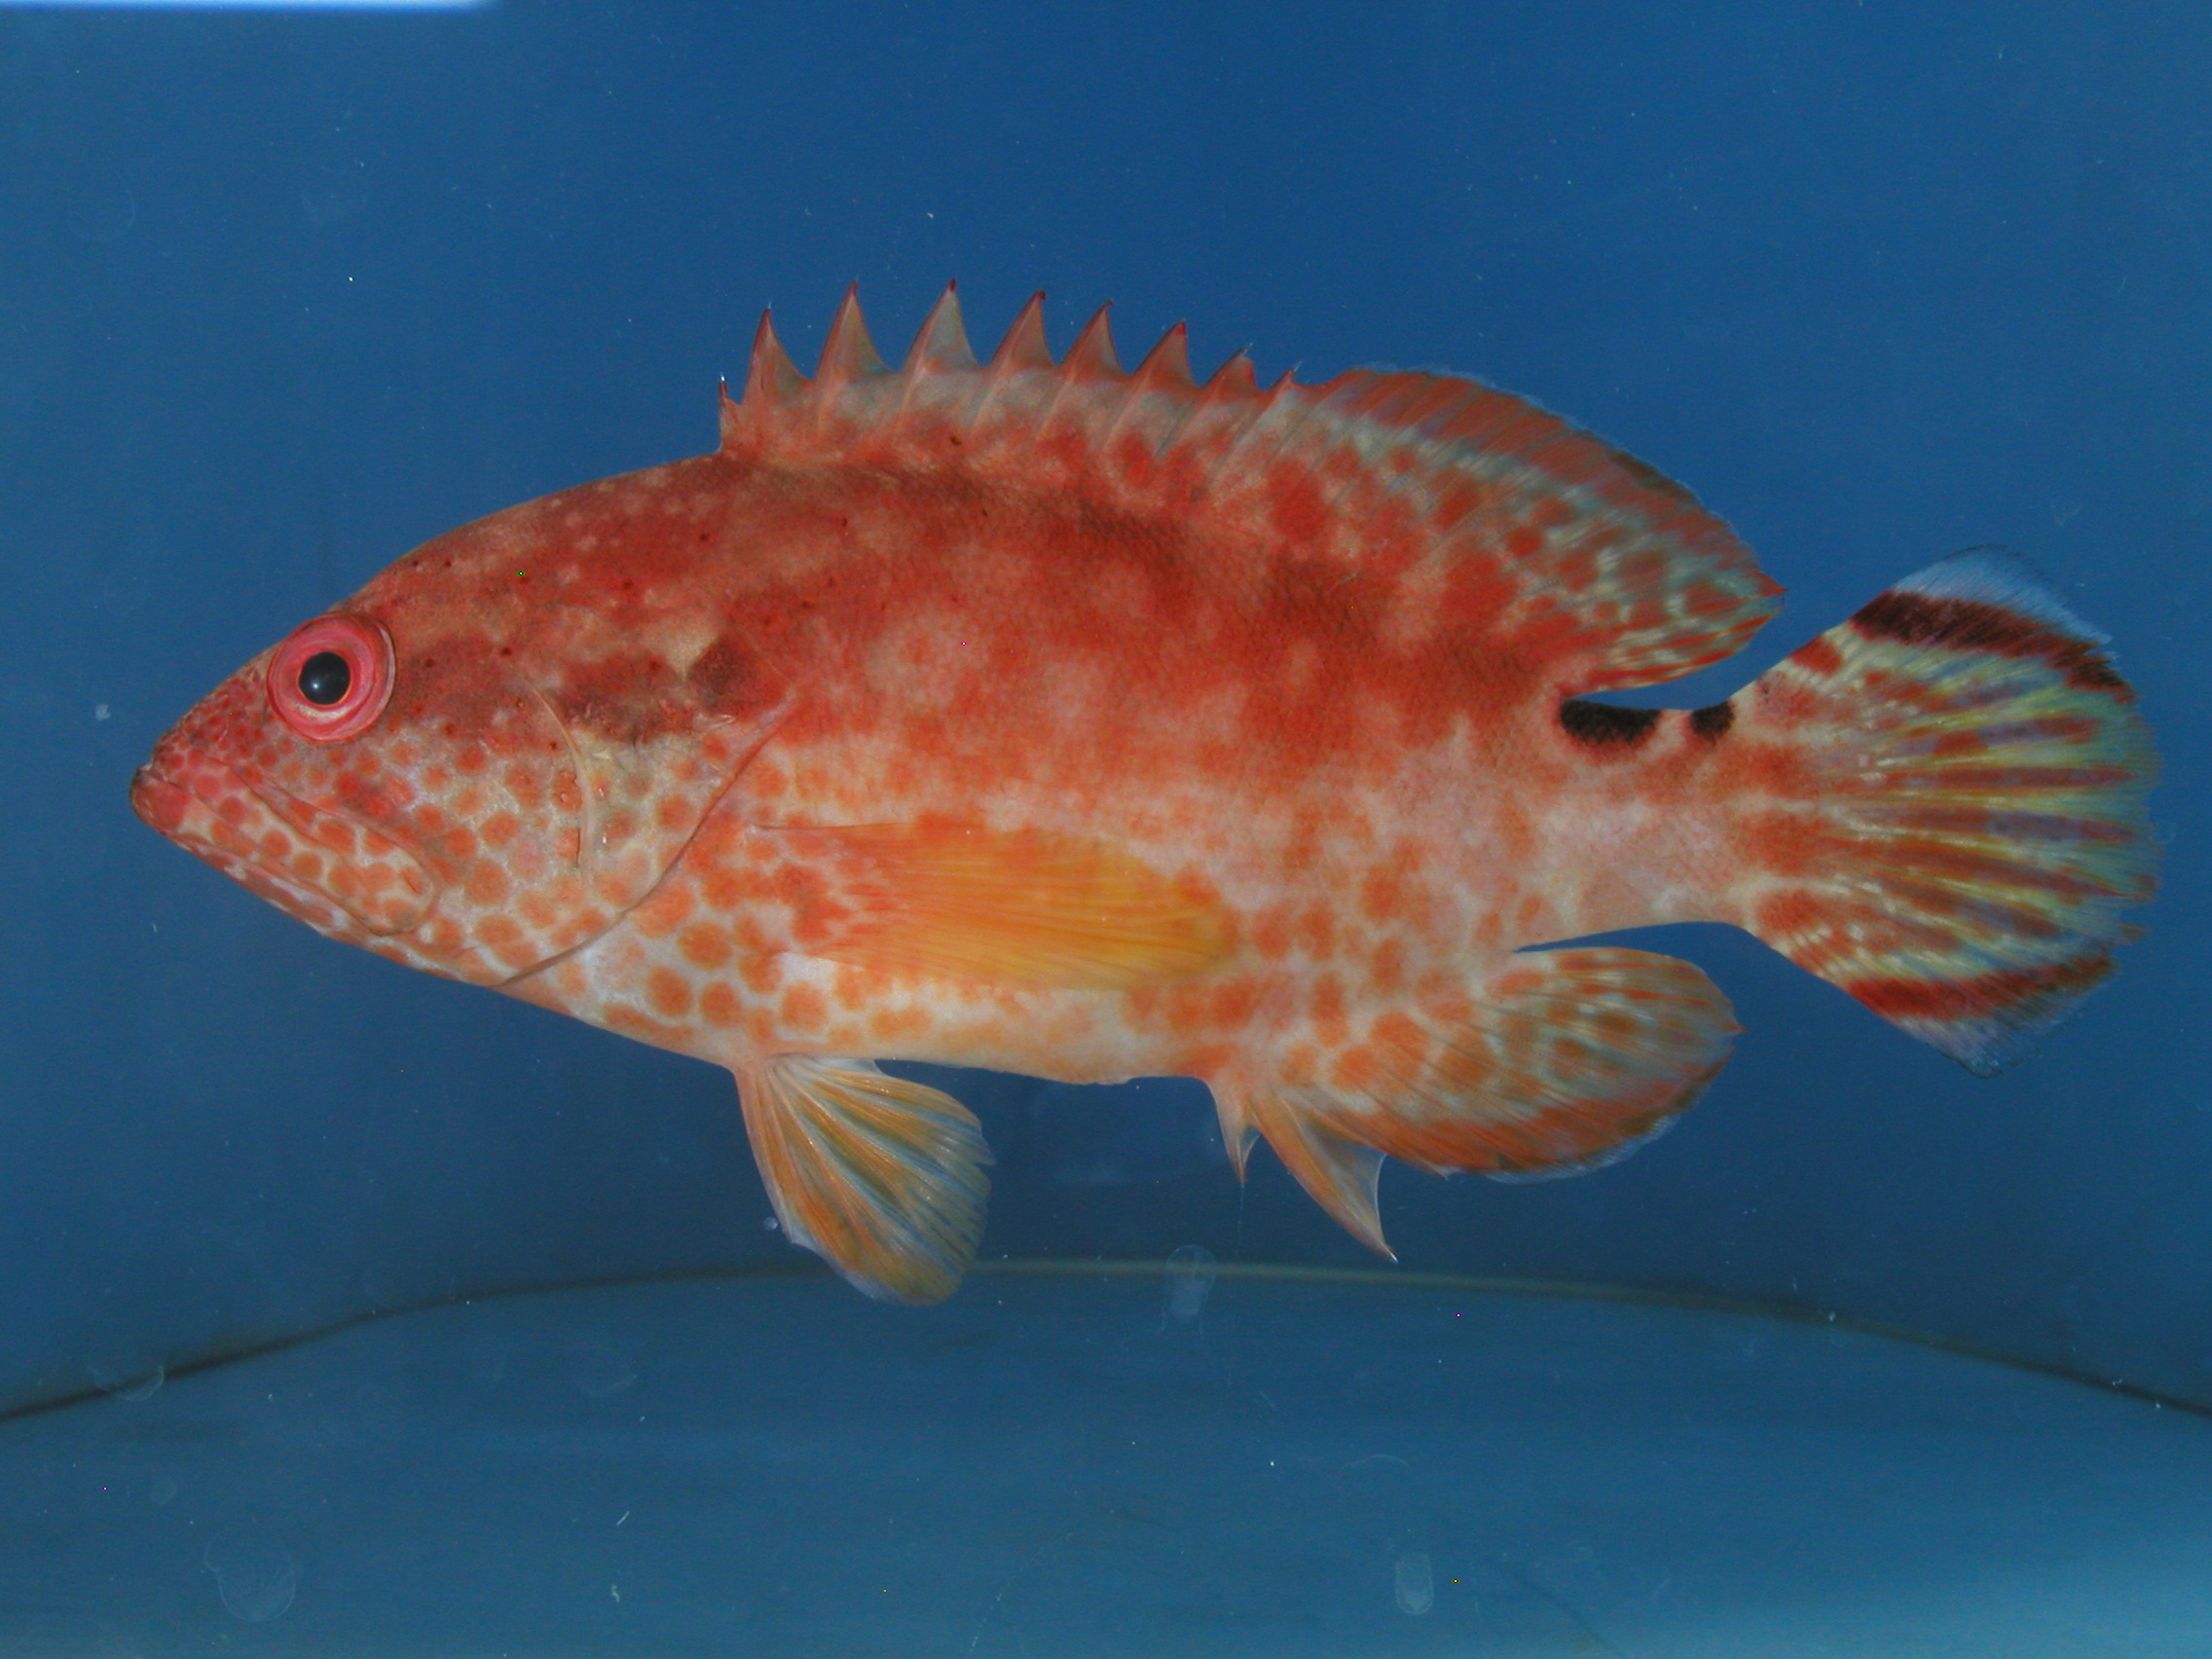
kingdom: Animalia
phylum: Chordata
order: Perciformes
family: Serranidae
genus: Cephalopholis
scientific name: Cephalopholis leopardus
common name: Leopard hind
